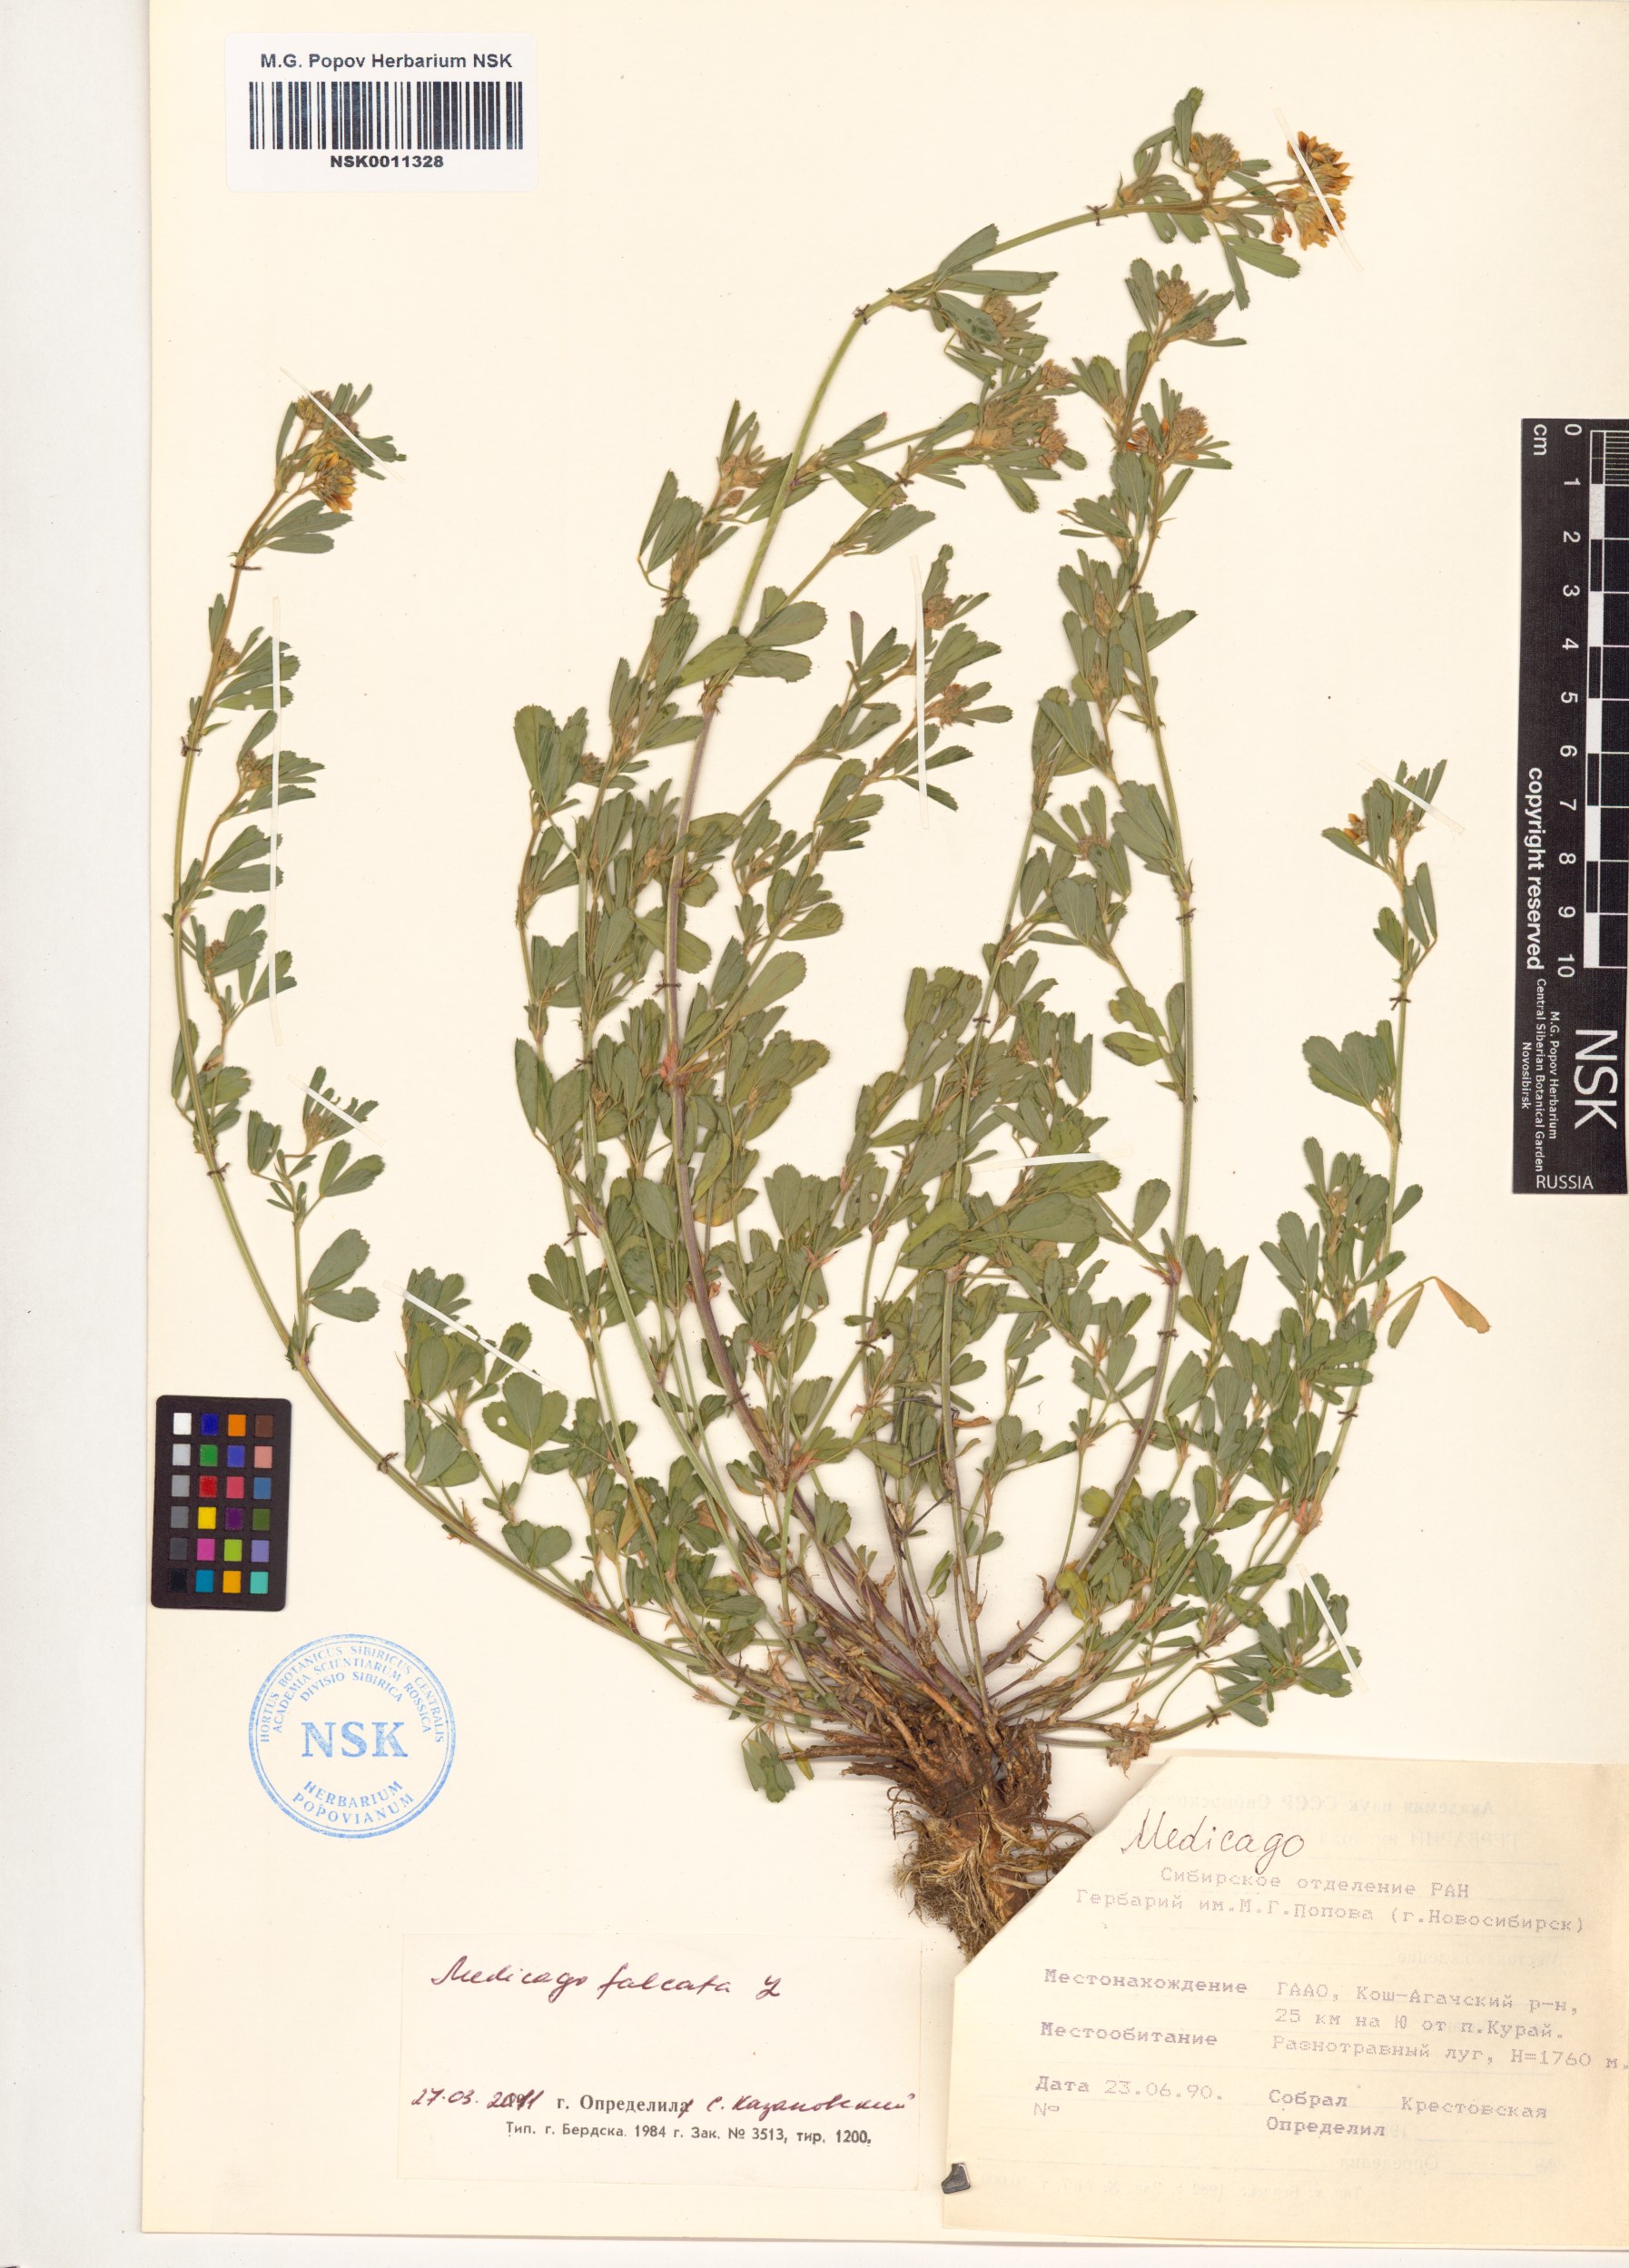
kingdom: Plantae
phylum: Tracheophyta
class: Magnoliopsida
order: Fabales
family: Fabaceae
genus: Medicago
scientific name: Medicago falcata
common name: Sickle medick
